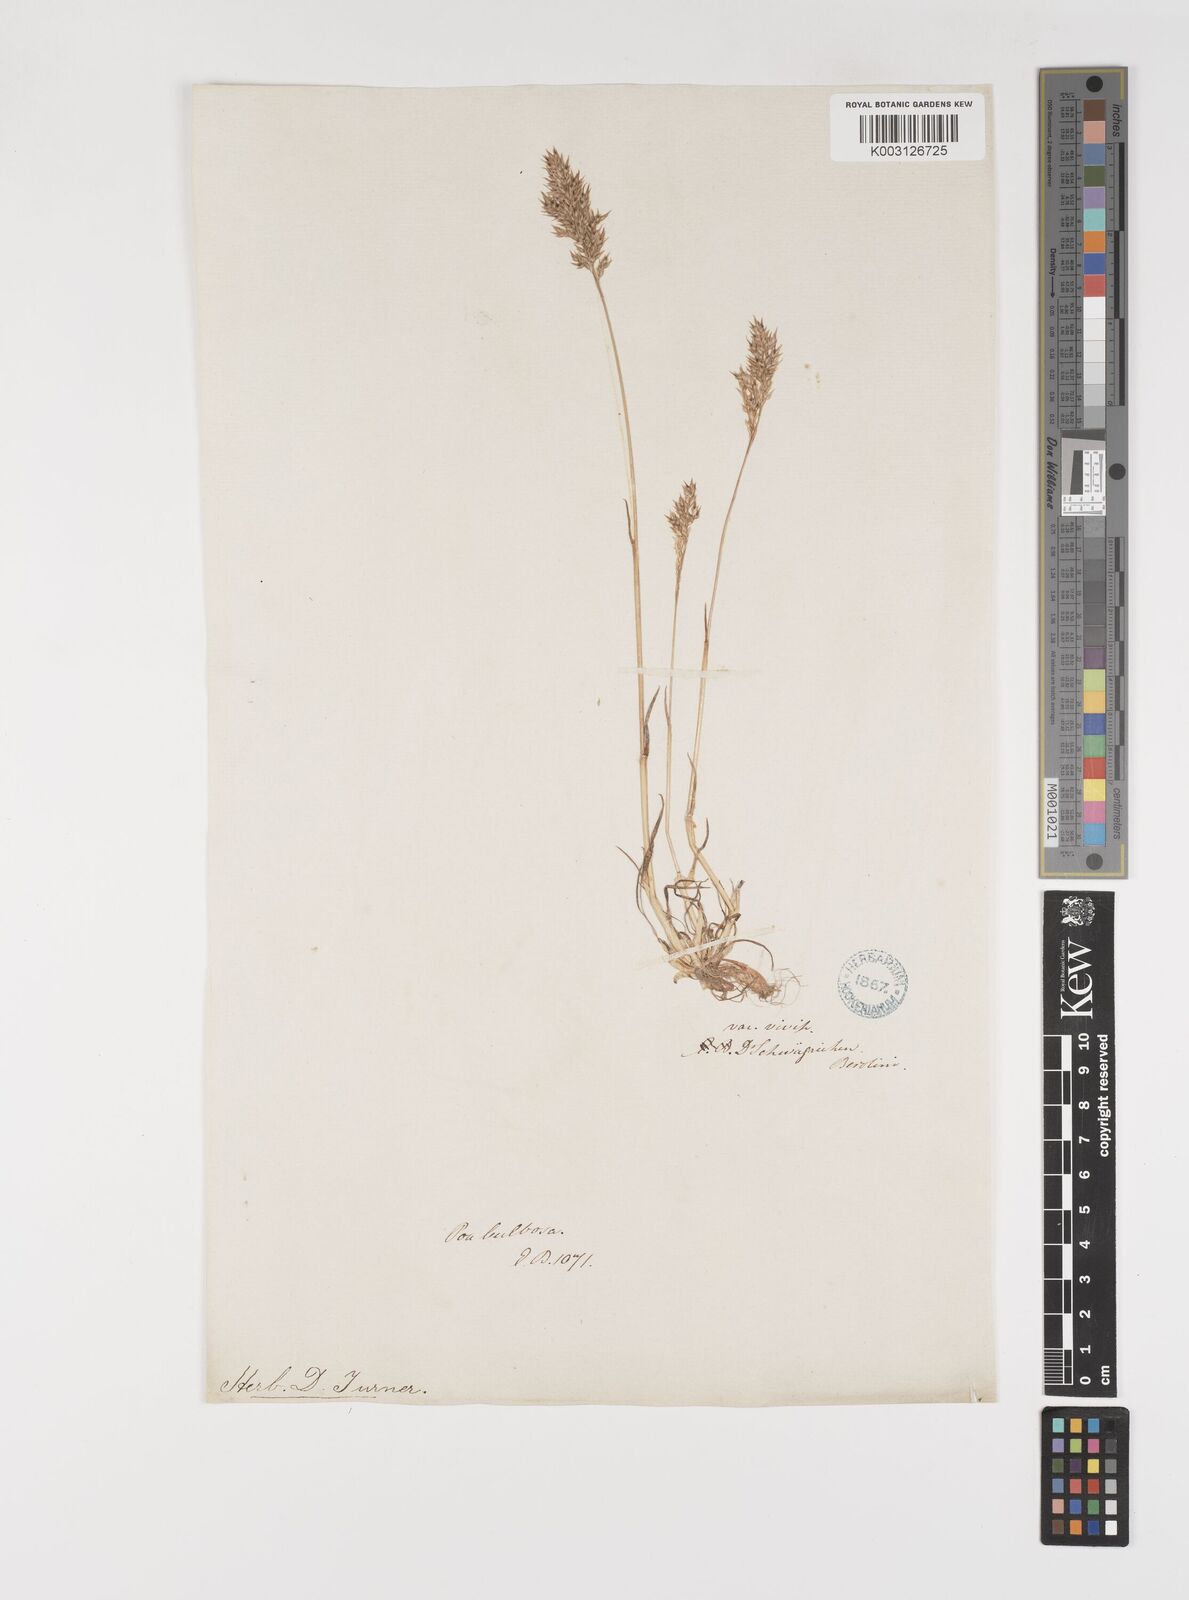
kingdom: Plantae
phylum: Tracheophyta
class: Liliopsida
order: Poales
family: Poaceae
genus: Poa
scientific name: Poa bulbosa
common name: Bulbous bluegrass
